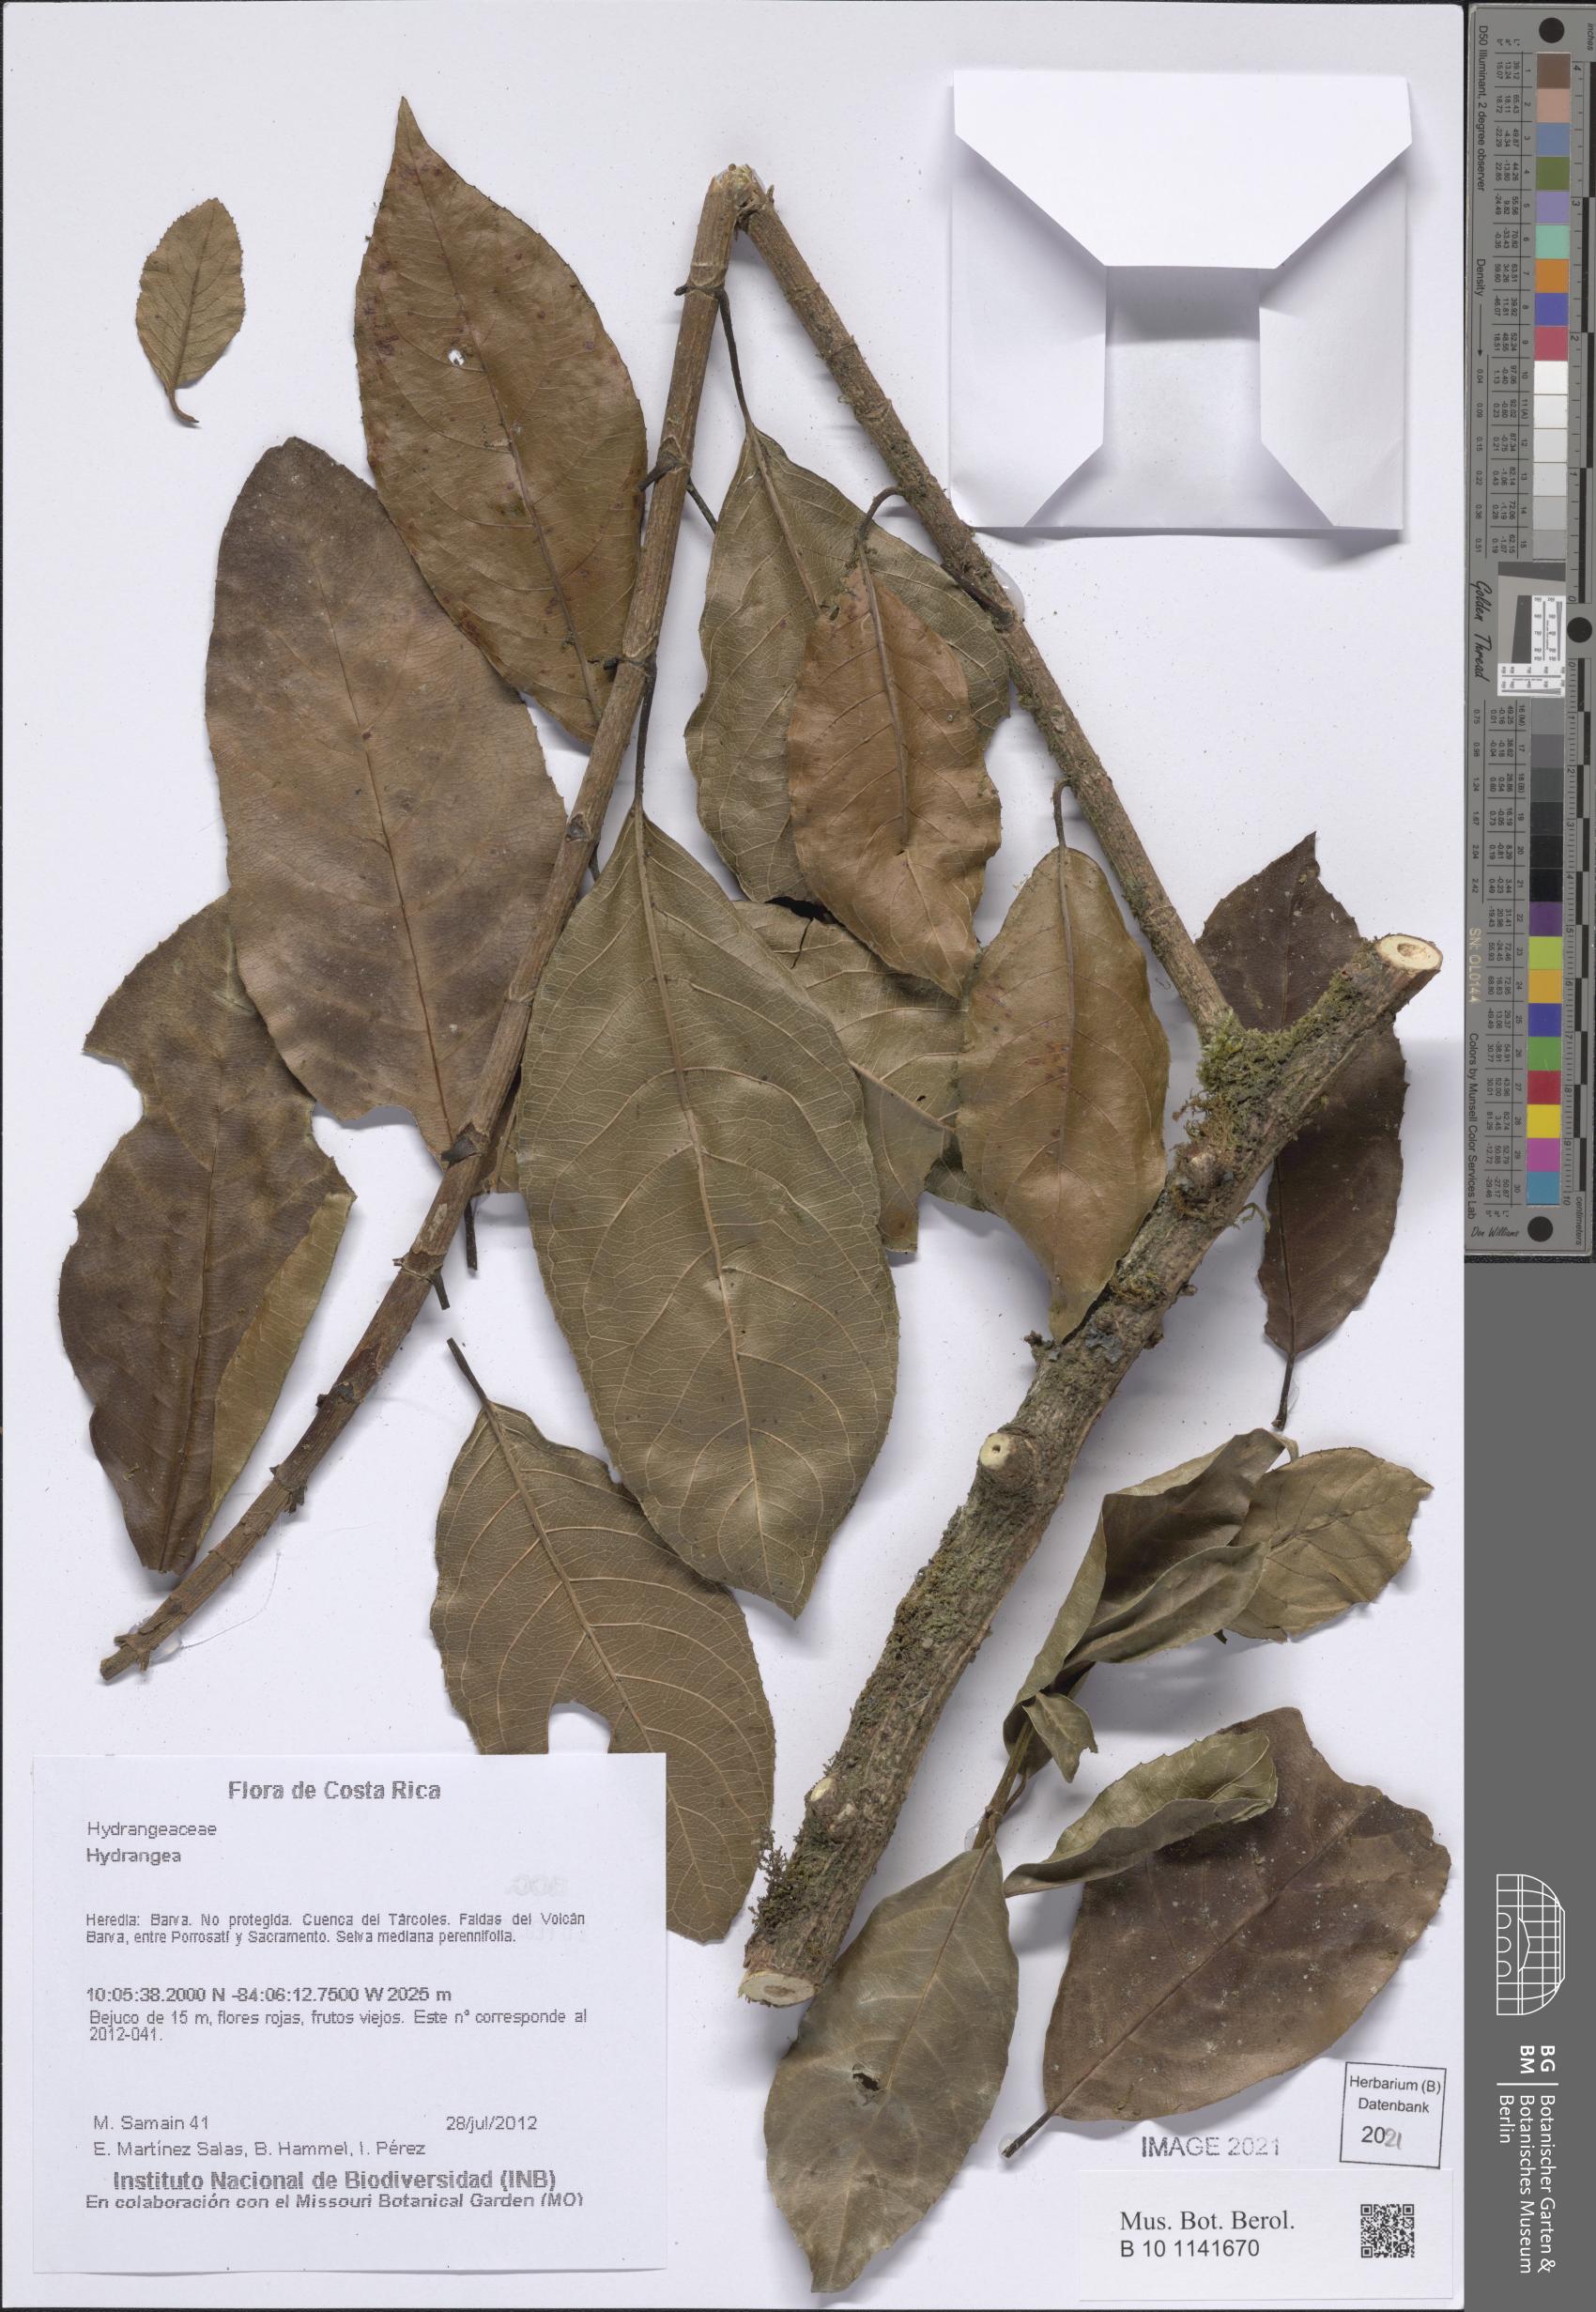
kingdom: Plantae
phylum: Tracheophyta
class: Magnoliopsida
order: Cornales
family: Hydrangeaceae
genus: Hydrangea
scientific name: Hydrangea
